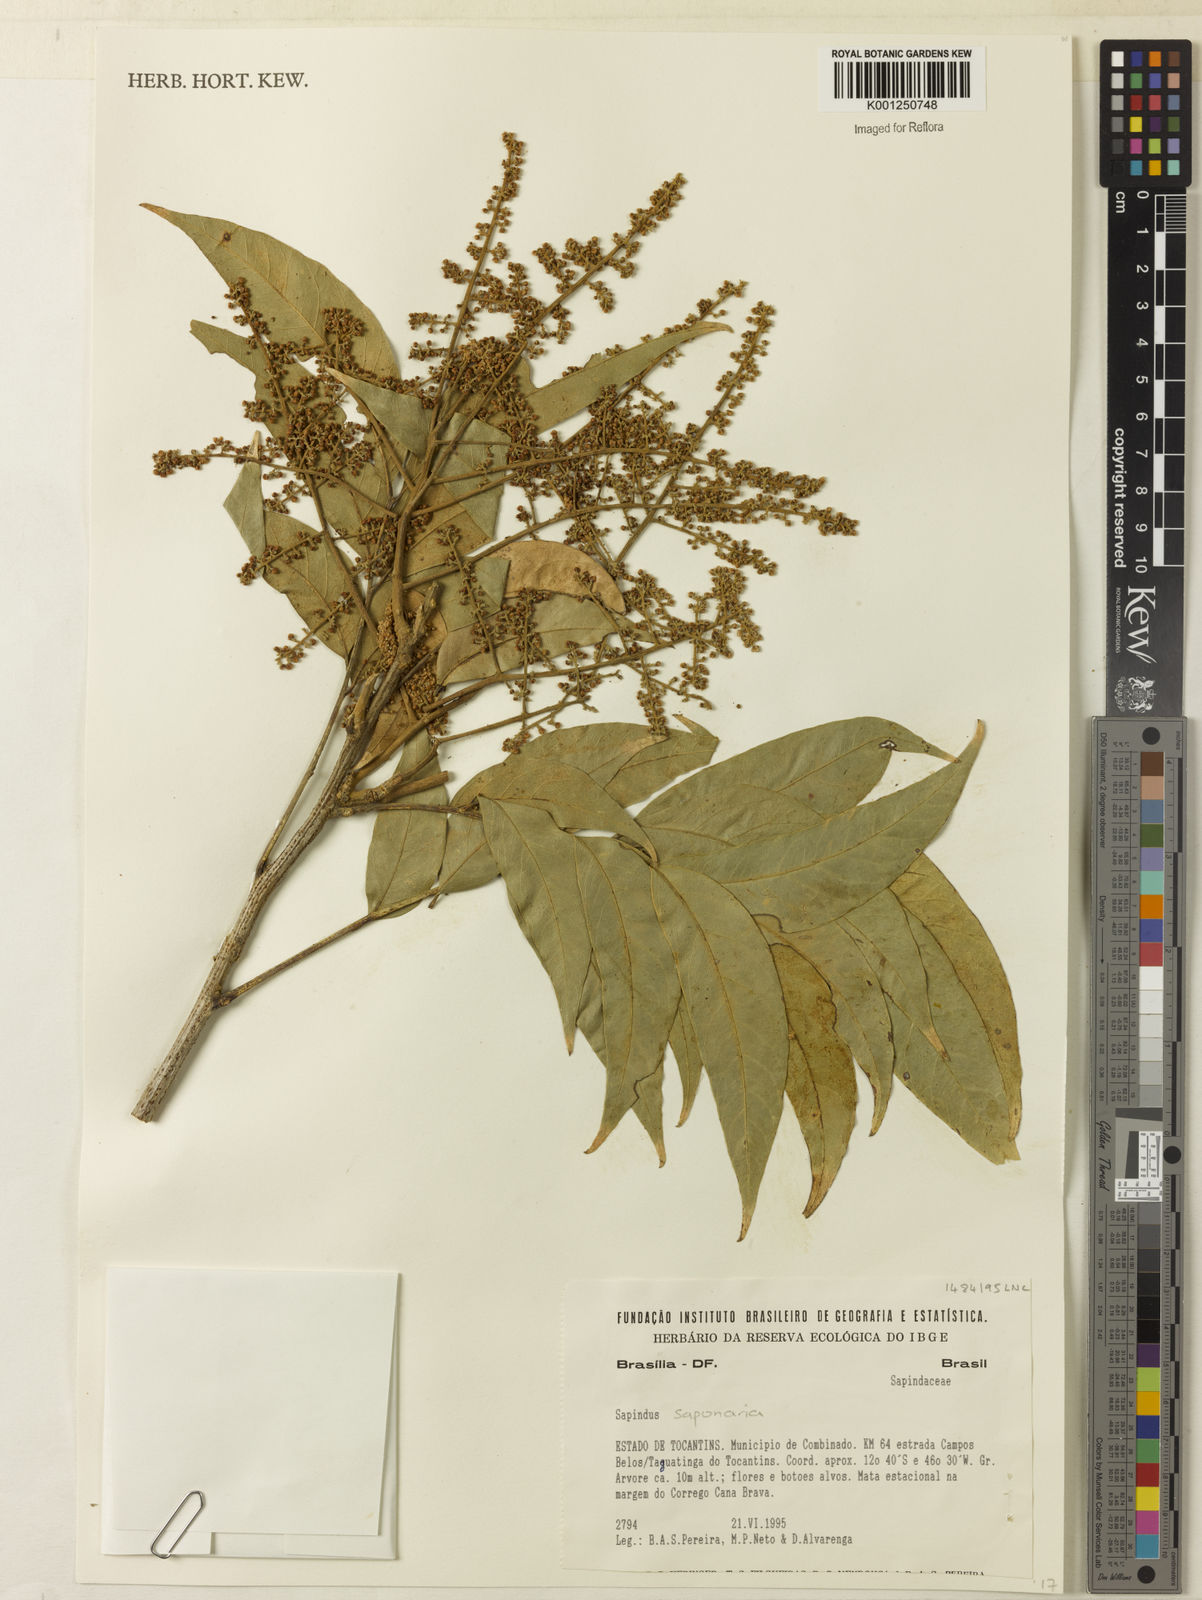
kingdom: Plantae
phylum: Tracheophyta
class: Magnoliopsida
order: Sapindales
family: Sapindaceae
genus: Sapindus
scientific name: Sapindus
